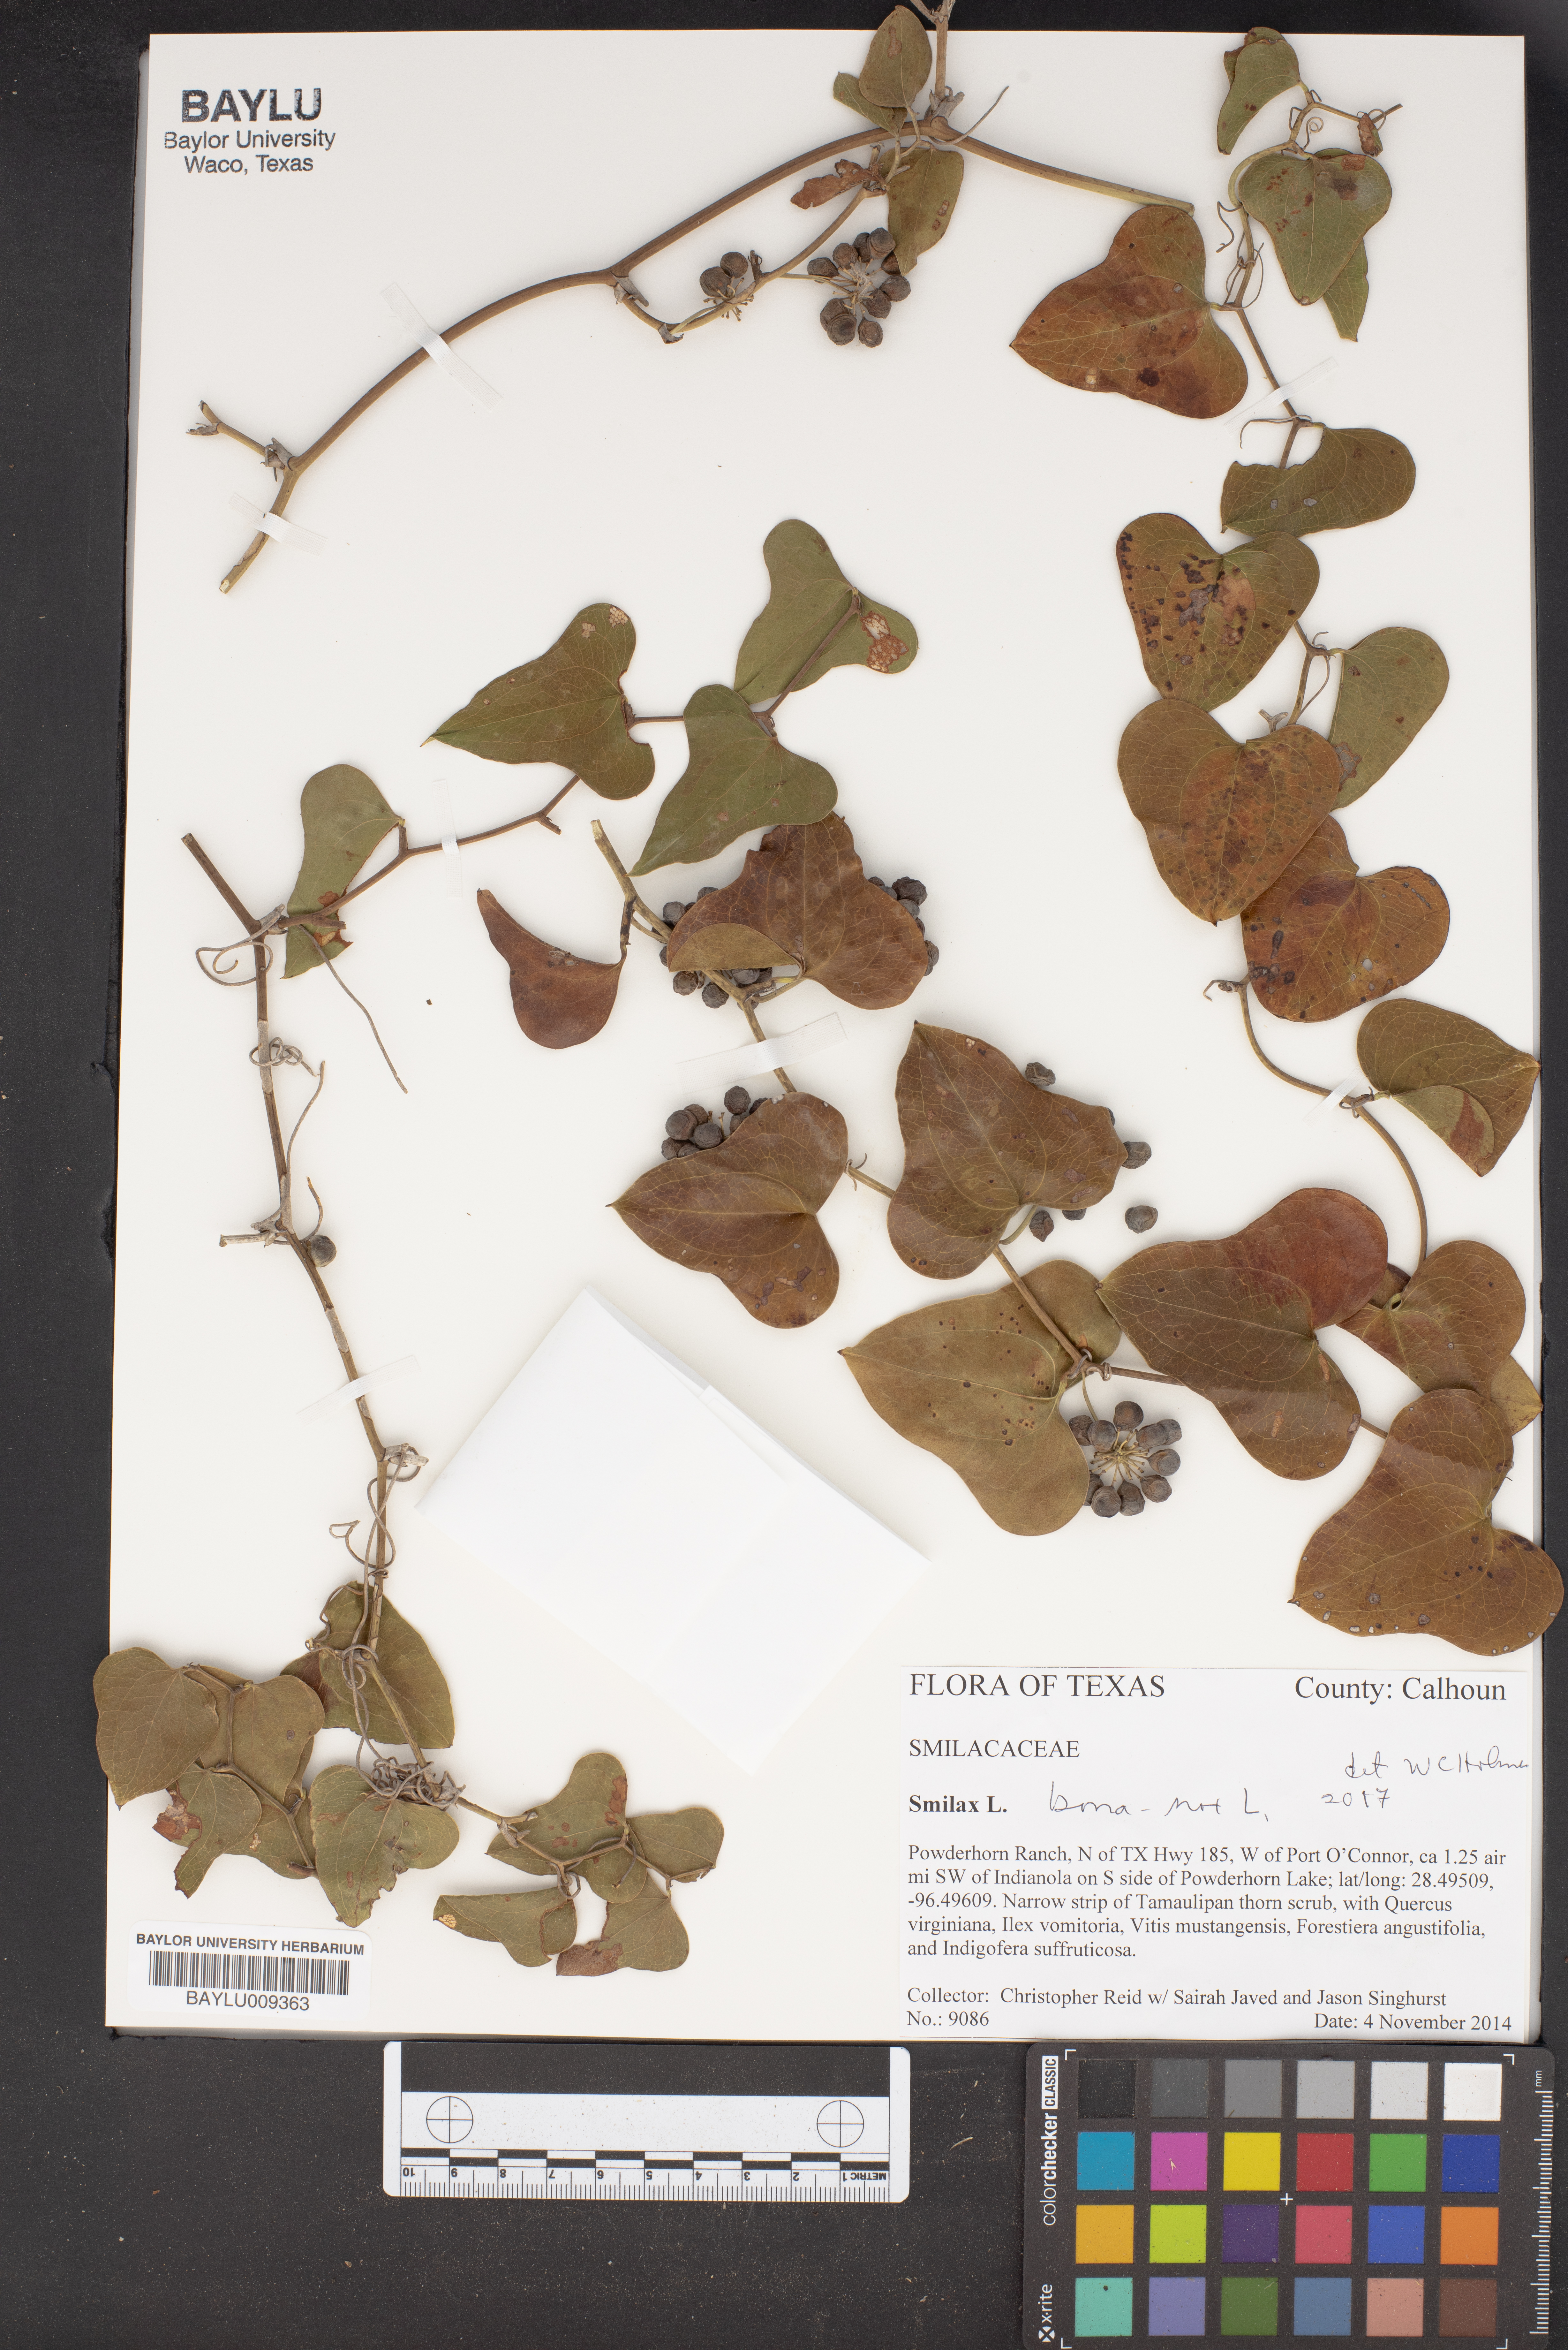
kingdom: Plantae
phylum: Tracheophyta
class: Liliopsida
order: Liliales
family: Smilacaceae
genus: Smilax
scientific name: Smilax
